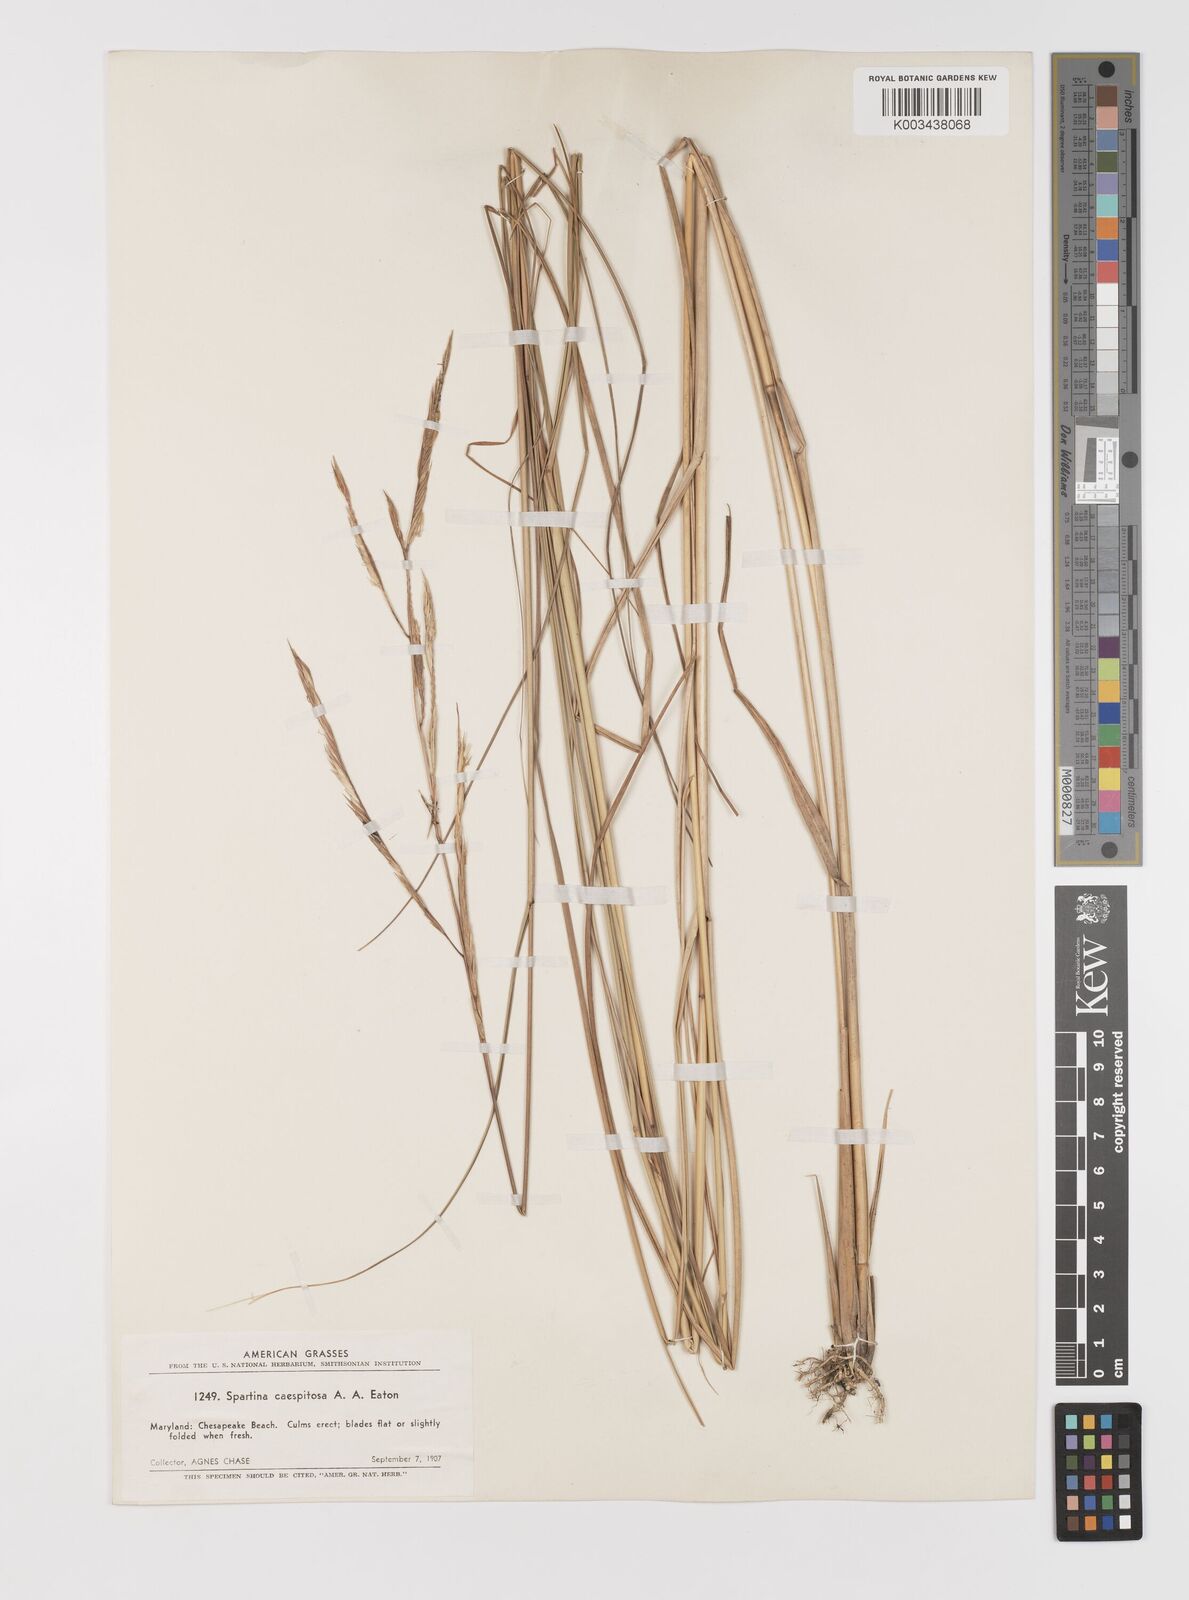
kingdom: Plantae
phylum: Tracheophyta
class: Liliopsida
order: Poales
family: Poaceae
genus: Sporobolus
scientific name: Sporobolus eatonianus
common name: Mixed cordgrass
